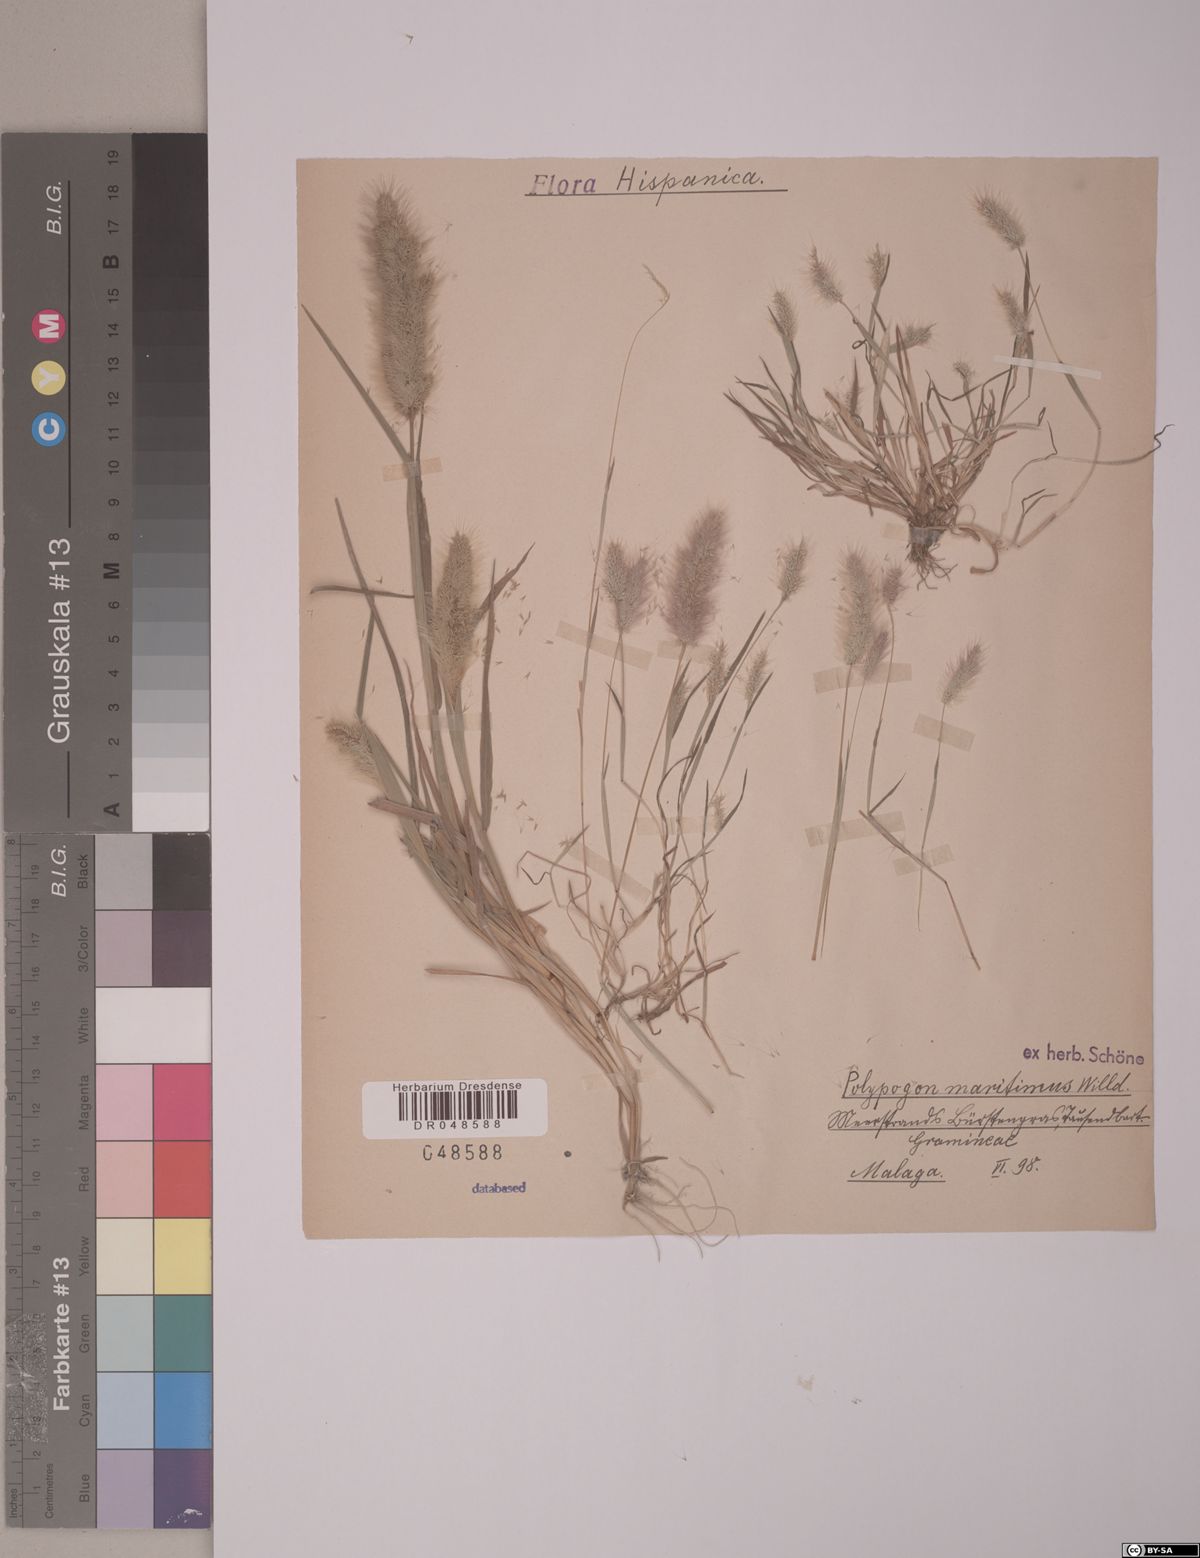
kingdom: Plantae
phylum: Tracheophyta
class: Liliopsida
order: Poales
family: Poaceae
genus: Polypogon
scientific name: Polypogon maritimus
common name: Mediterranean rabbitsfoot grass
